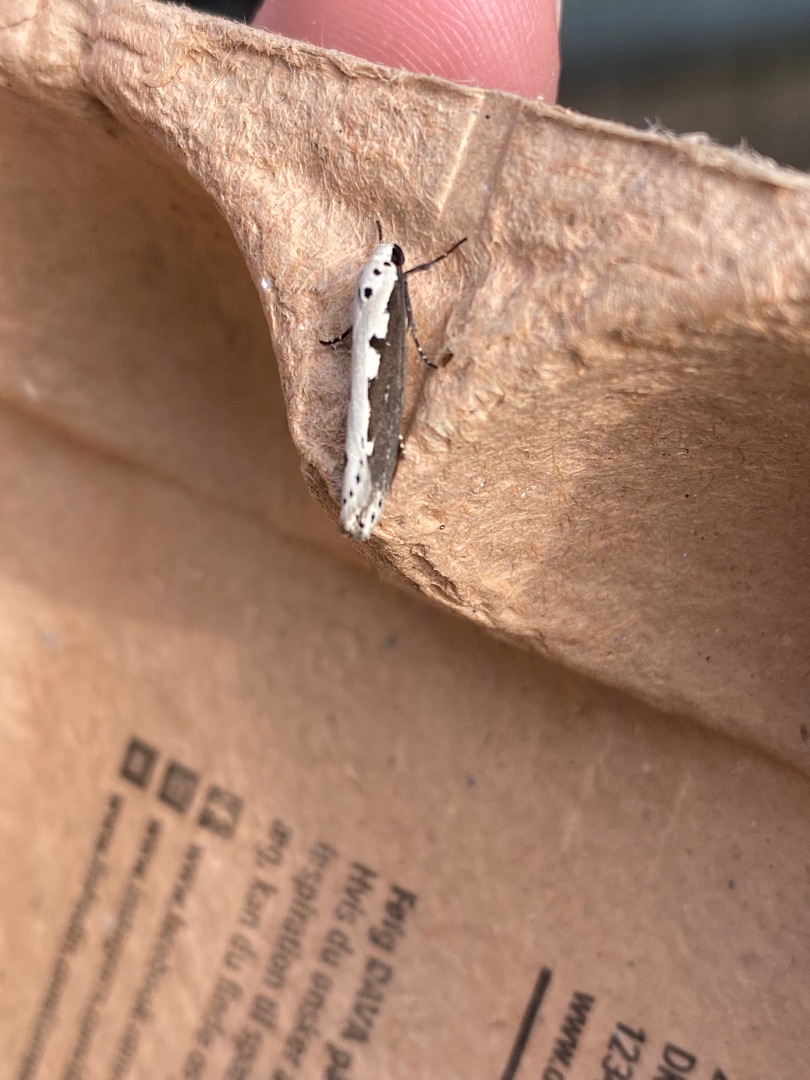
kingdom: Animalia
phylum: Arthropoda
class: Insecta
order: Lepidoptera
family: Ethmiidae
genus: Ethmia
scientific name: Ethmia bipunctella
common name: Slangehovedmøl
